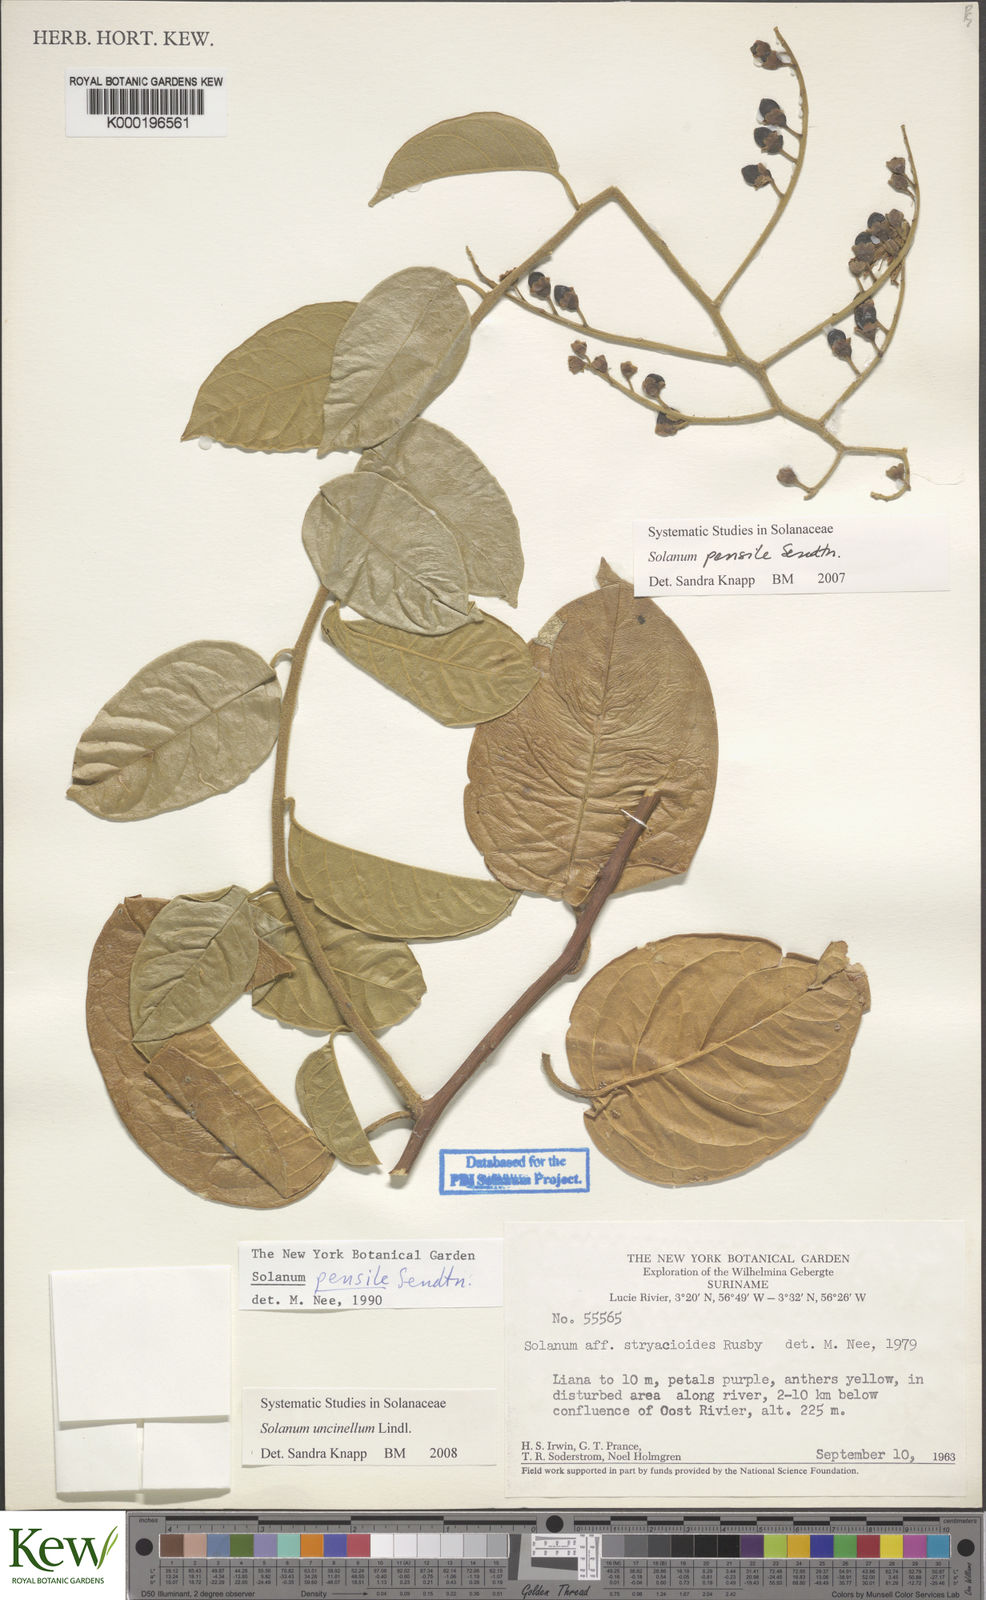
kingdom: Plantae
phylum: Tracheophyta
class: Magnoliopsida
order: Solanales
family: Solanaceae
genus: Solanum
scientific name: Solanum uncinellum
